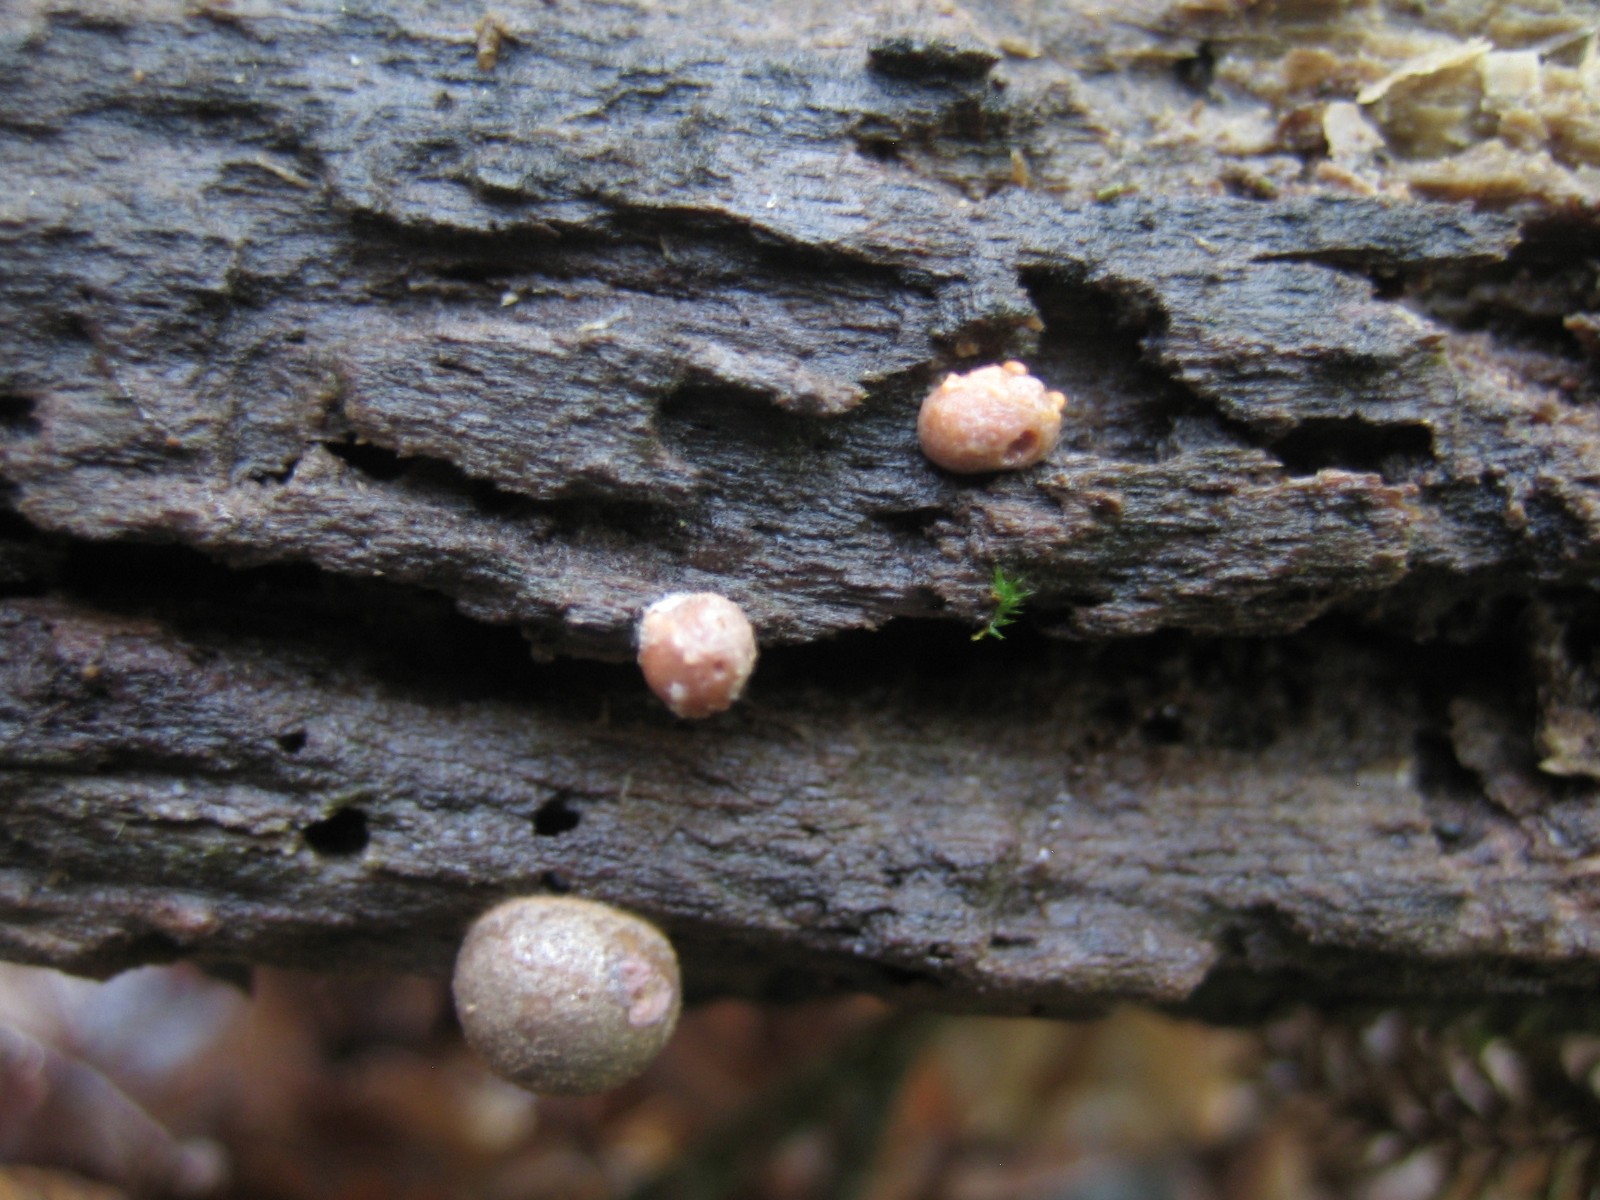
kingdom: Protozoa
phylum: Mycetozoa
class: Myxomycetes
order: Cribrariales
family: Tubiferaceae
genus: Lycogala
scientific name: Lycogala epidendrum
